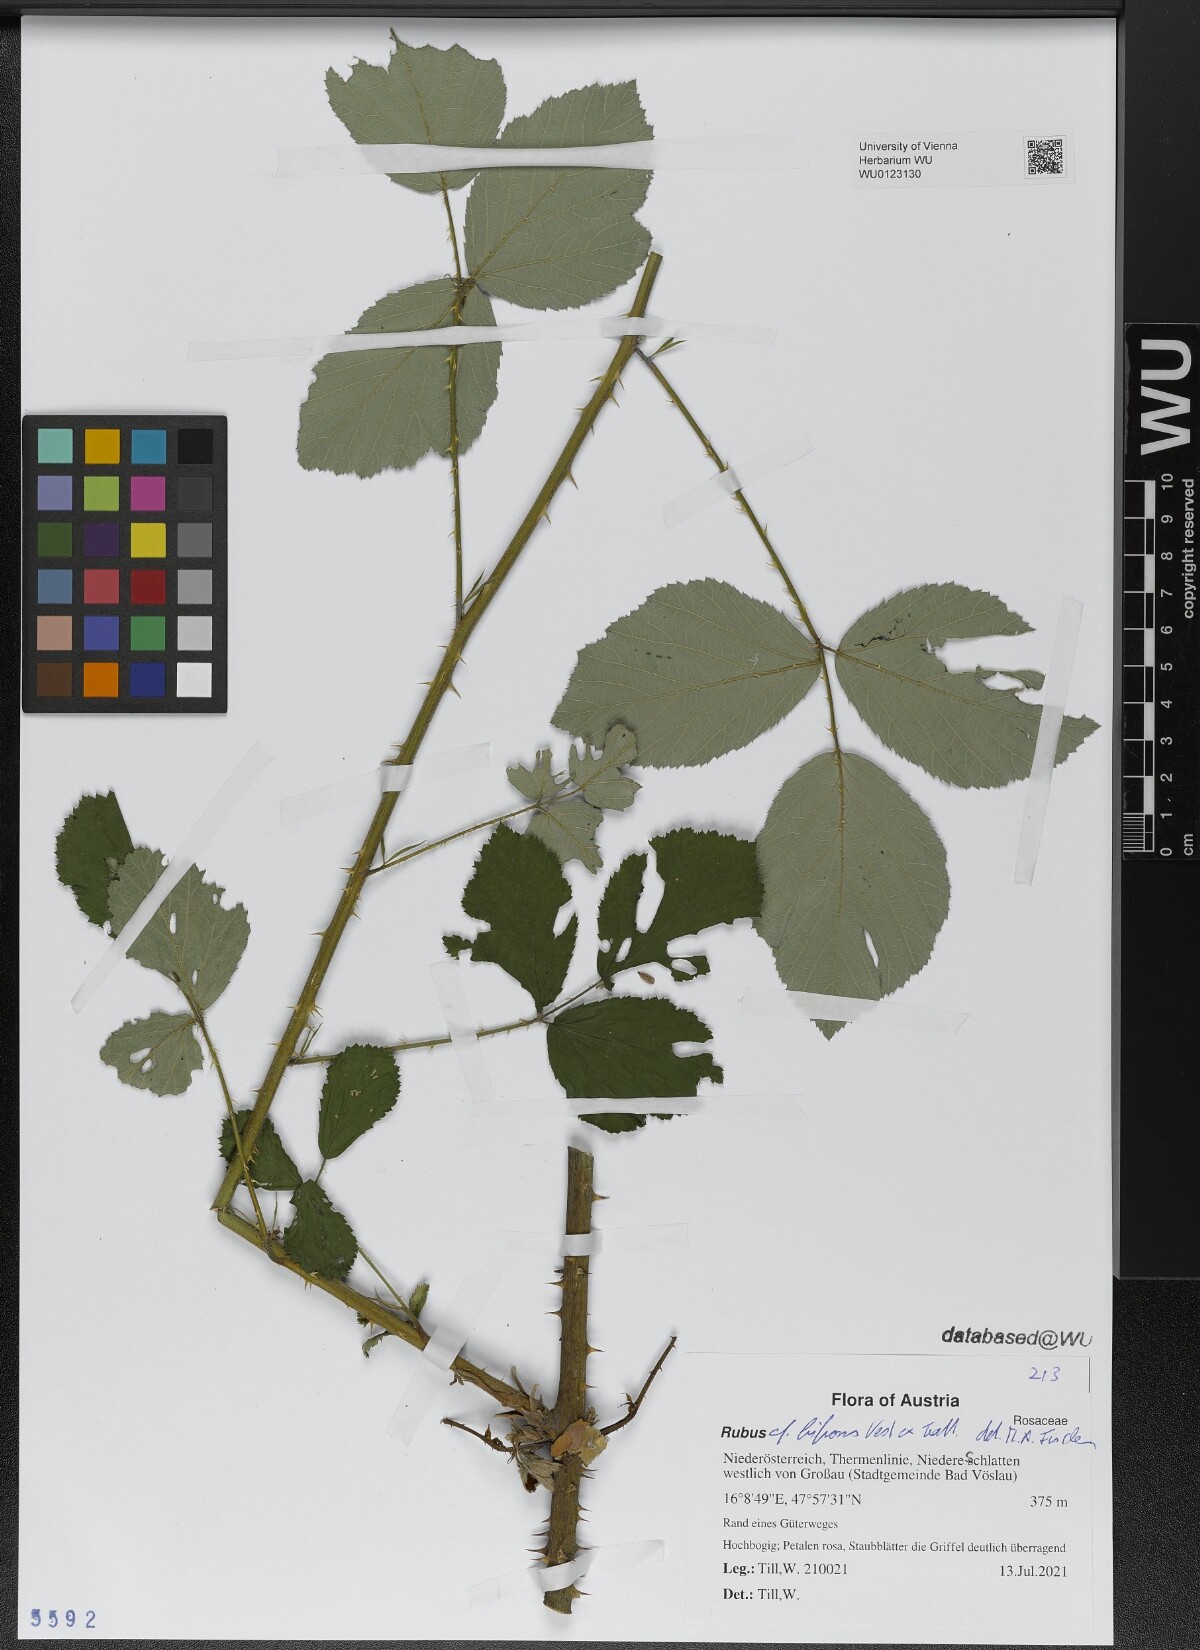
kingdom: Plantae
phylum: Tracheophyta
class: Magnoliopsida
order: Rosales
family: Rosaceae
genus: Rubus
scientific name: Rubus bifrons
